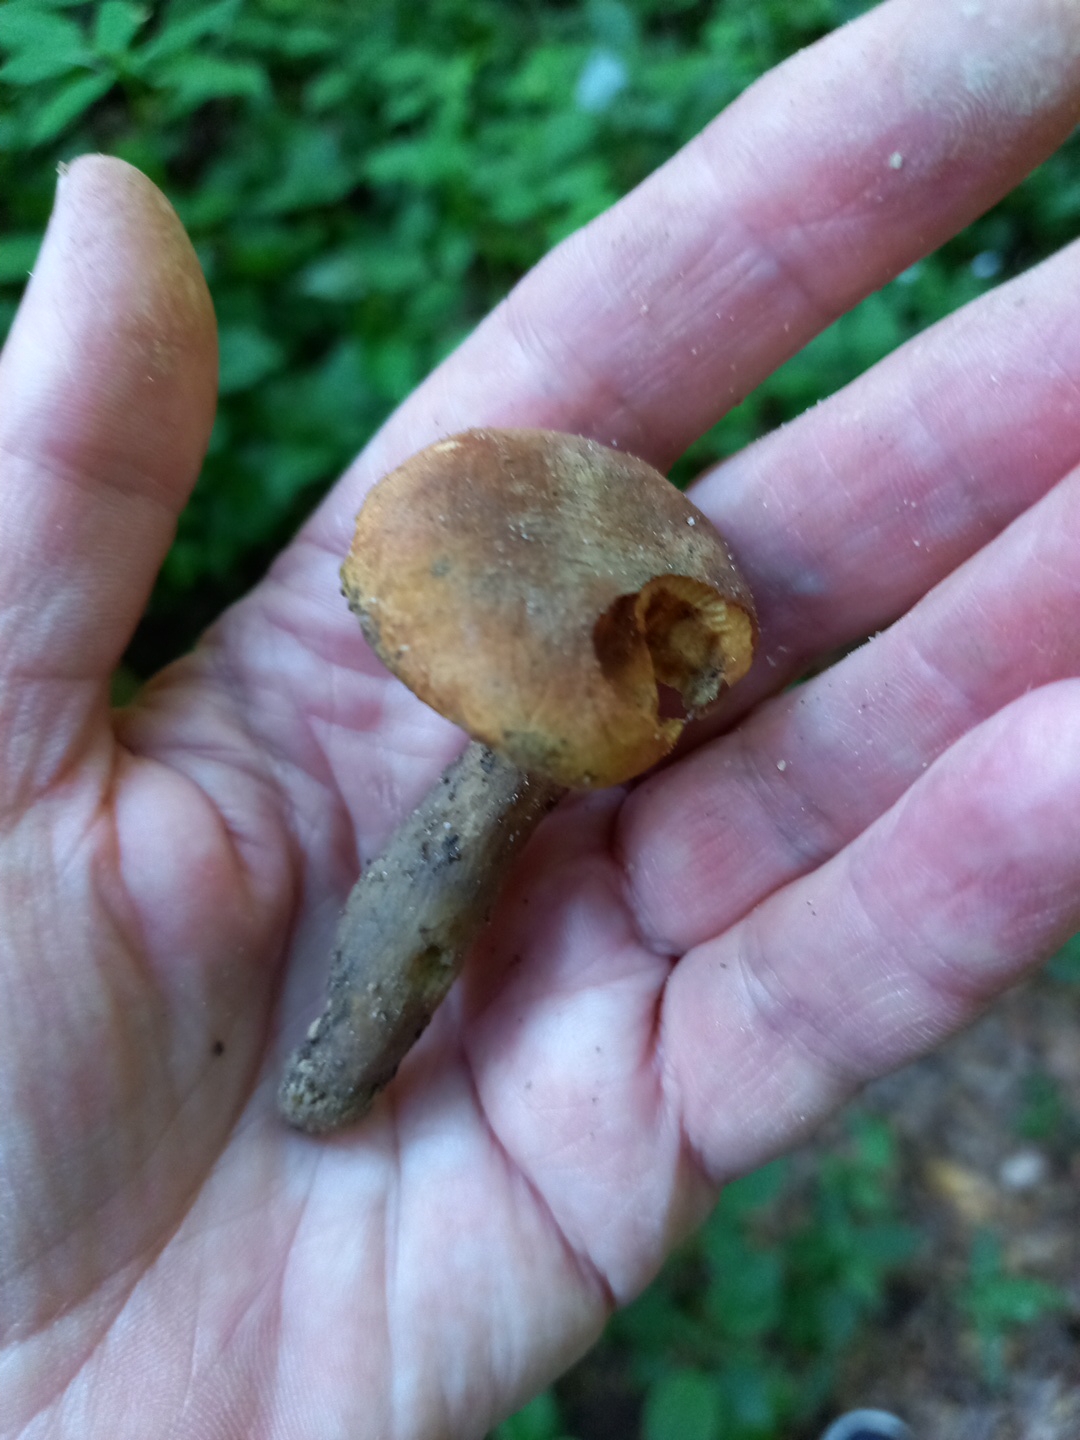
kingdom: Fungi
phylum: Basidiomycota
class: Agaricomycetes
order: Boletales
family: Boletaceae
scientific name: Boletaceae
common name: rørhatfamilien
